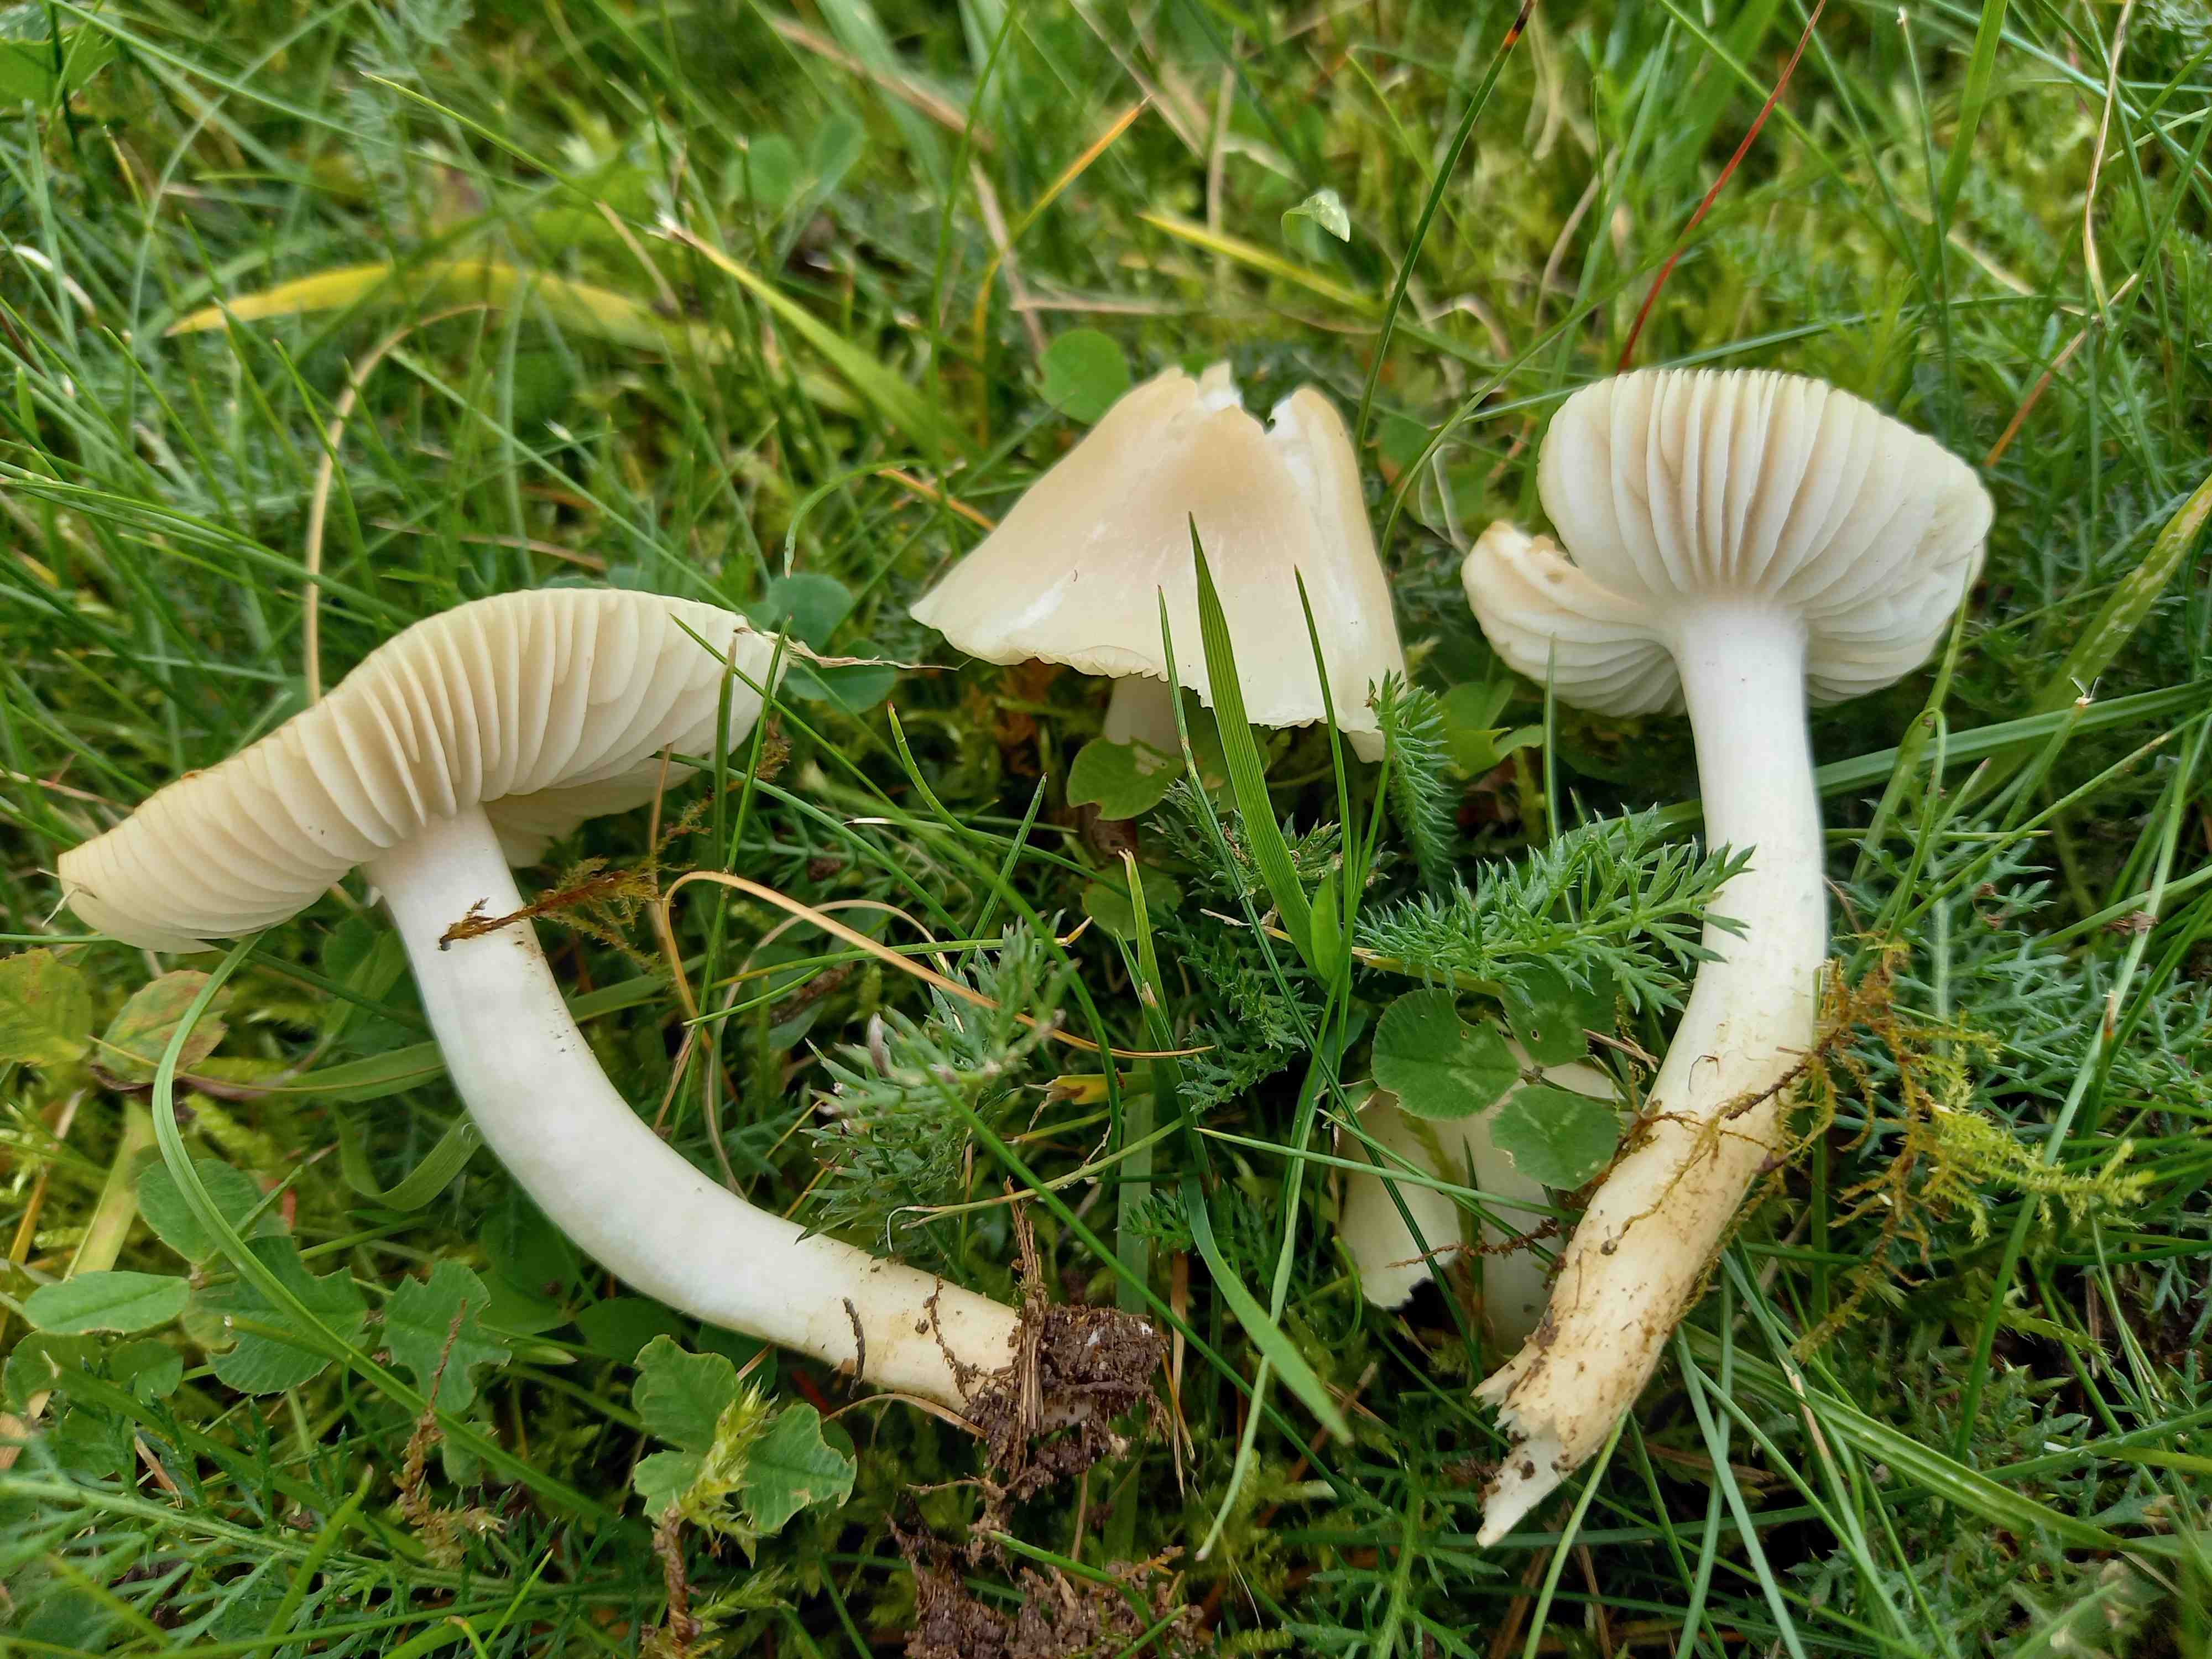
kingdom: Fungi
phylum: Basidiomycota
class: Agaricomycetes
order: Agaricales
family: Hygrophoraceae
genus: Cuphophyllus
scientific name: Cuphophyllus fornicatus
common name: gråbrun vokshat
